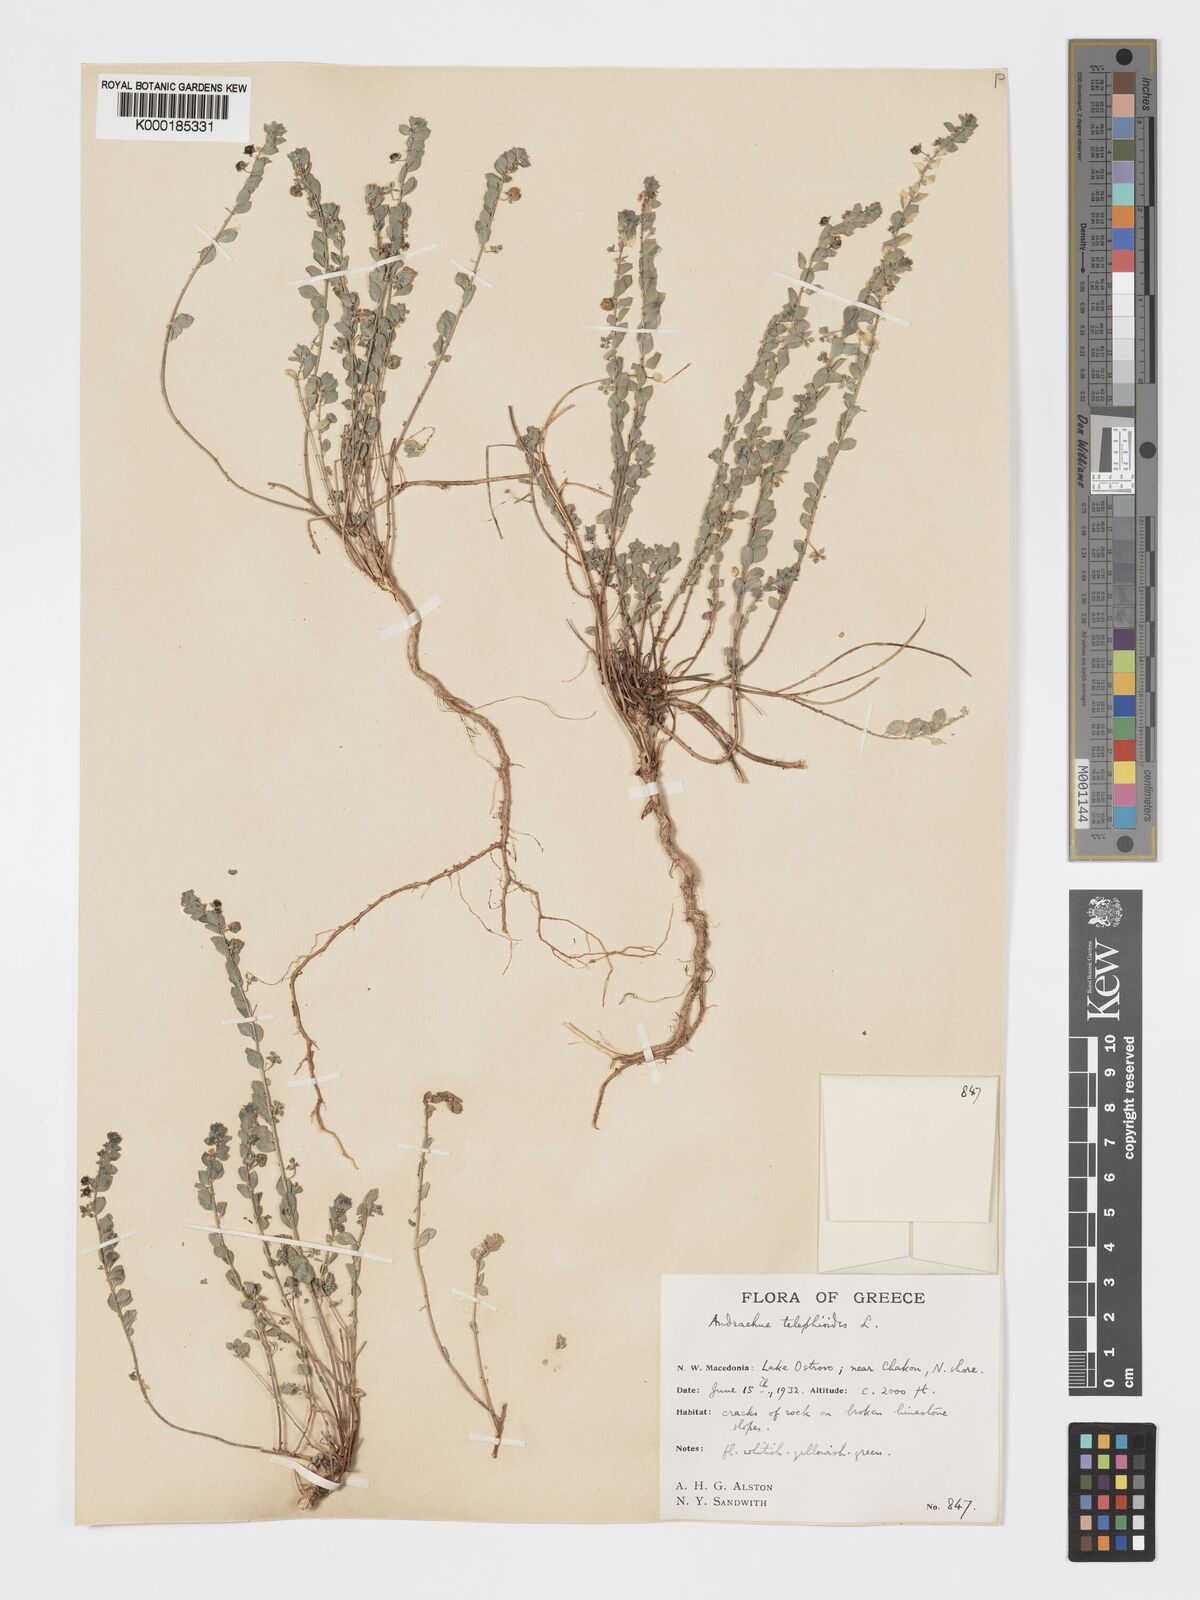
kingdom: Plantae
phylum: Tracheophyta
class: Magnoliopsida
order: Malpighiales
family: Phyllanthaceae
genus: Andrachne
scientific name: Andrachne telephioides
